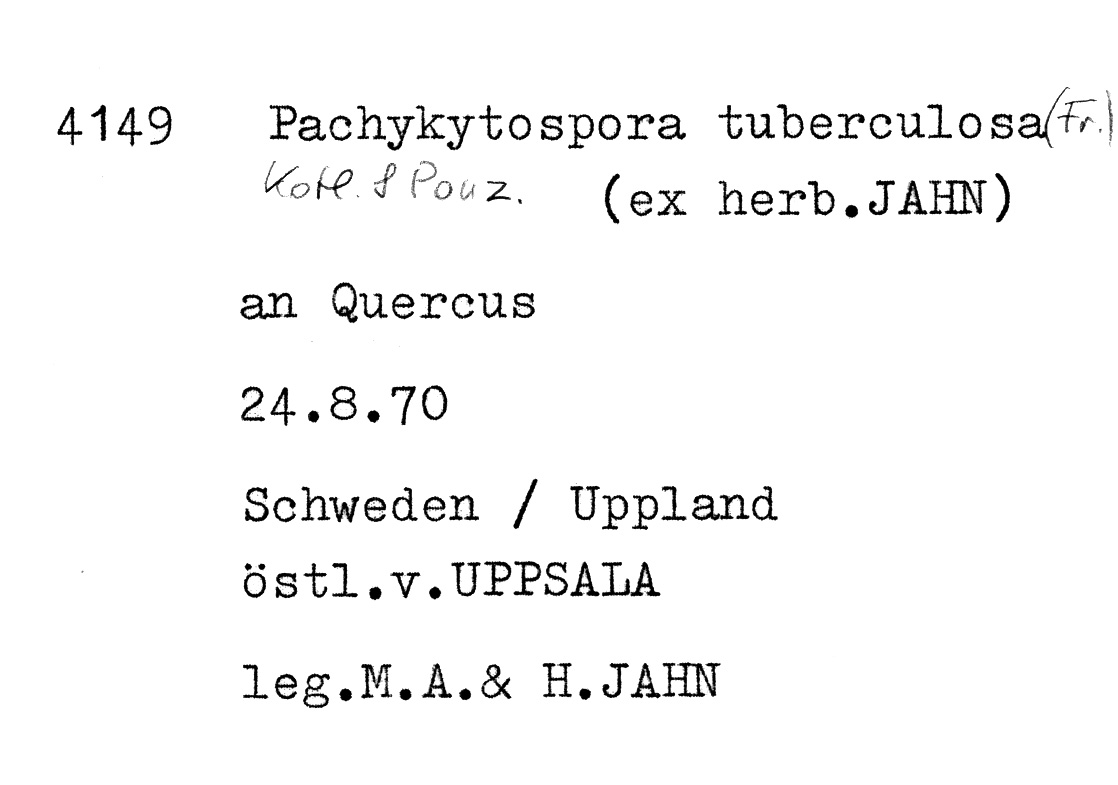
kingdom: Fungi
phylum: Basidiomycota
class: Agaricomycetes
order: Polyporales
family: Polyporaceae
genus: Pachykytospora
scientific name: Pachykytospora tuberculosa
